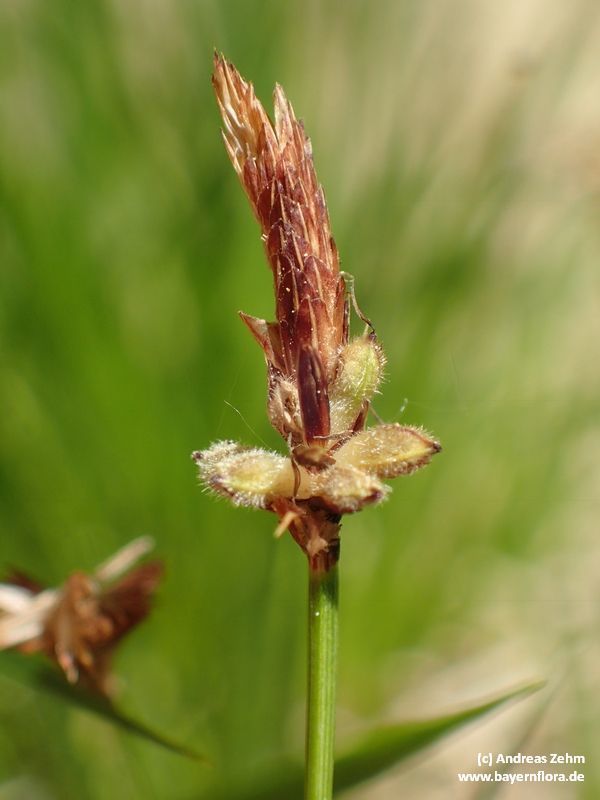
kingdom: Plantae
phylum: Tracheophyta
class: Liliopsida
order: Poales
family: Cyperaceae
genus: Carex
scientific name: Carex pilulifera
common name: Pill sedge
